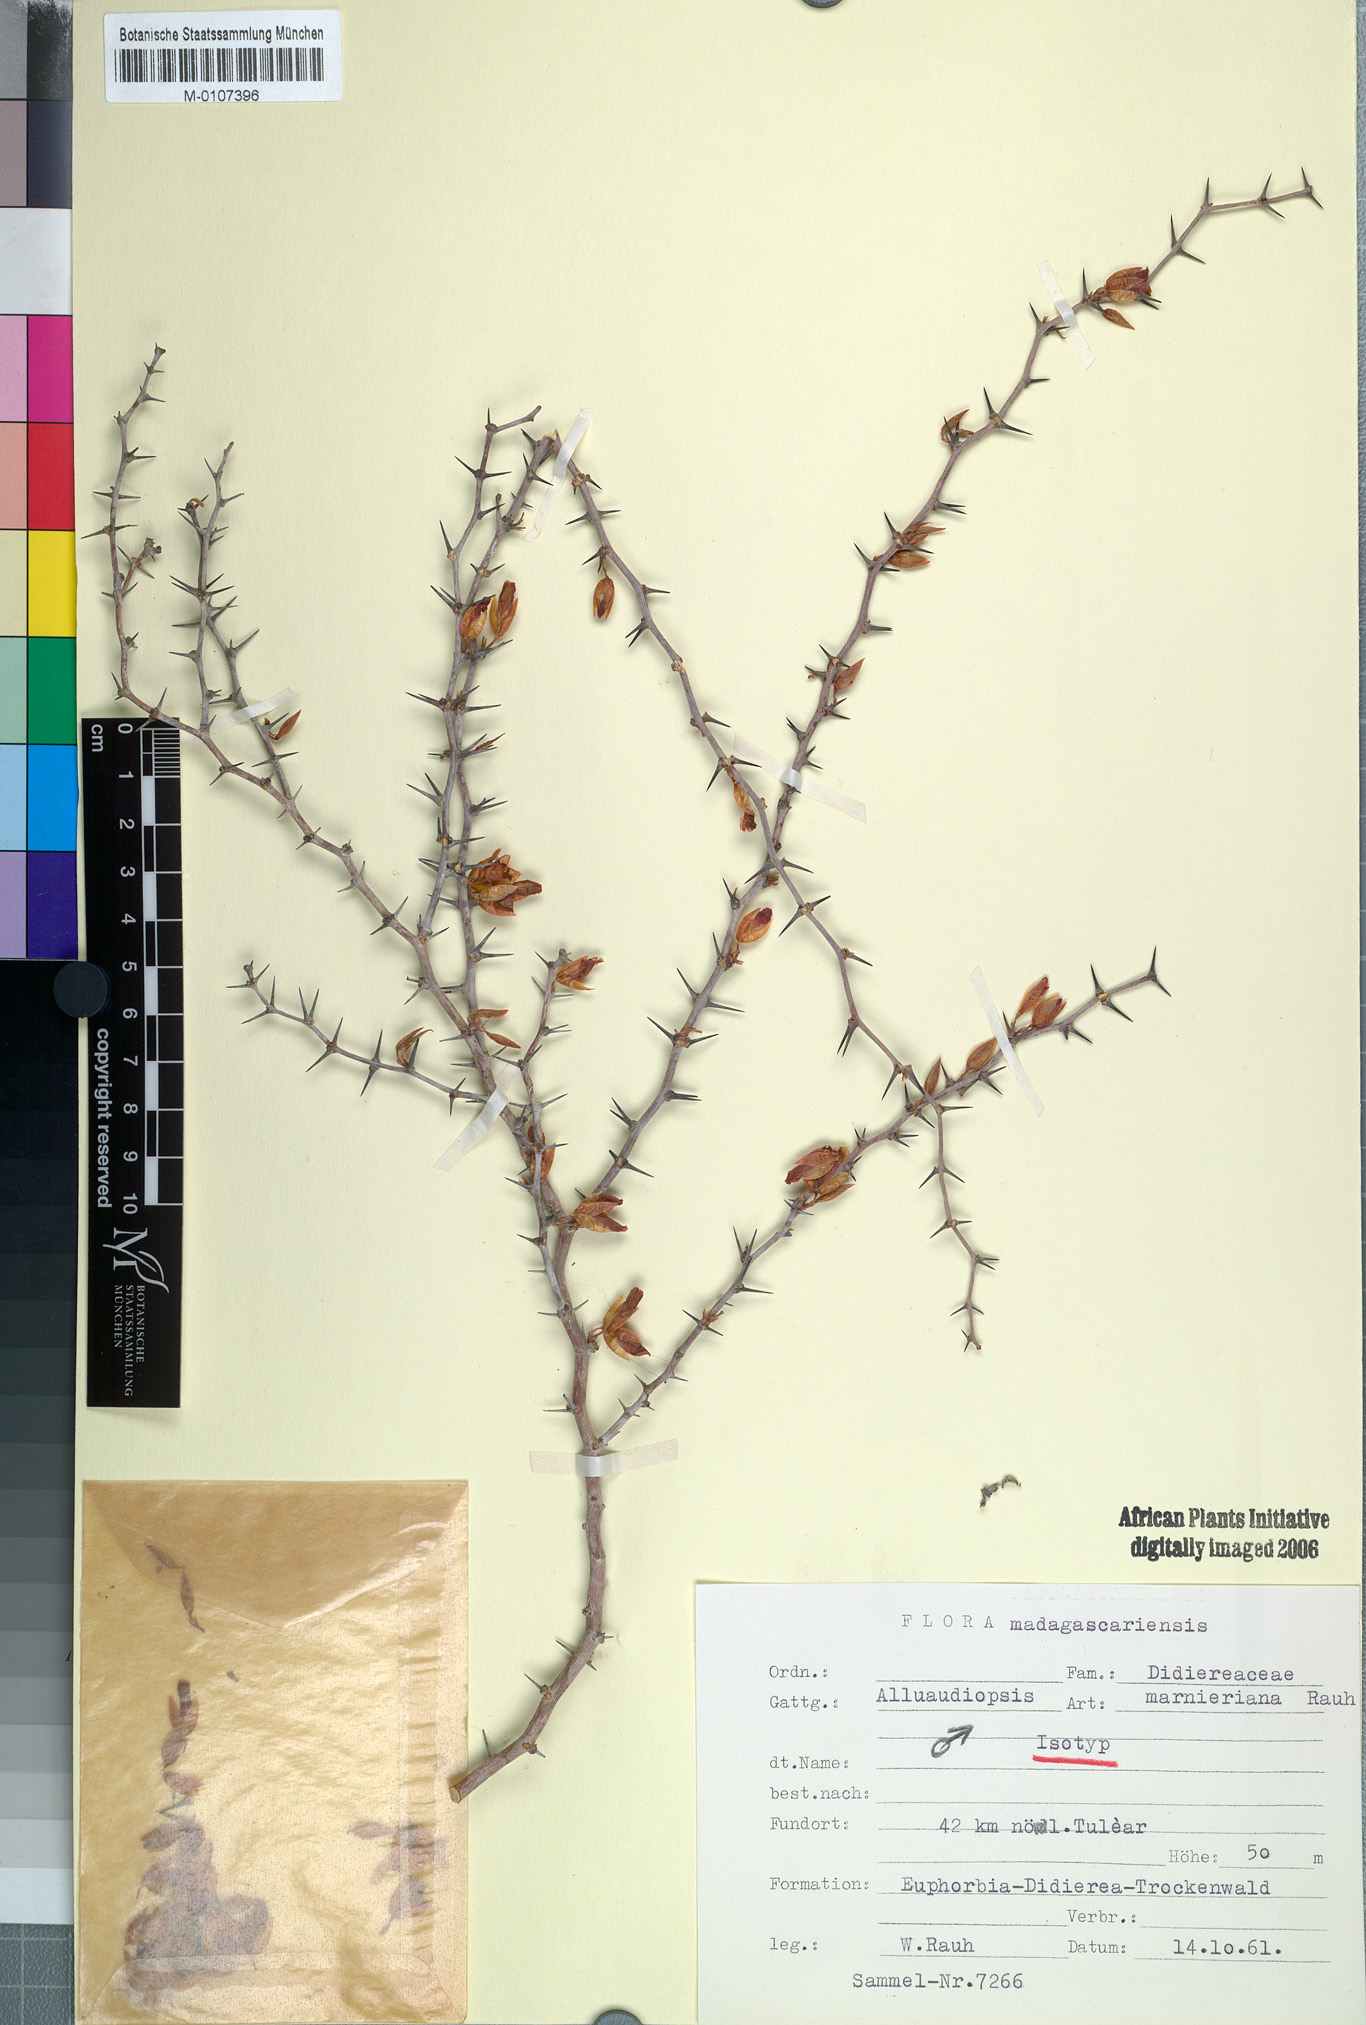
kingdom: Plantae
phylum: Tracheophyta
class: Magnoliopsida
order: Caryophyllales
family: Didiereaceae
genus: Alluaudiopsis
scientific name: Alluaudiopsis marnieriana
